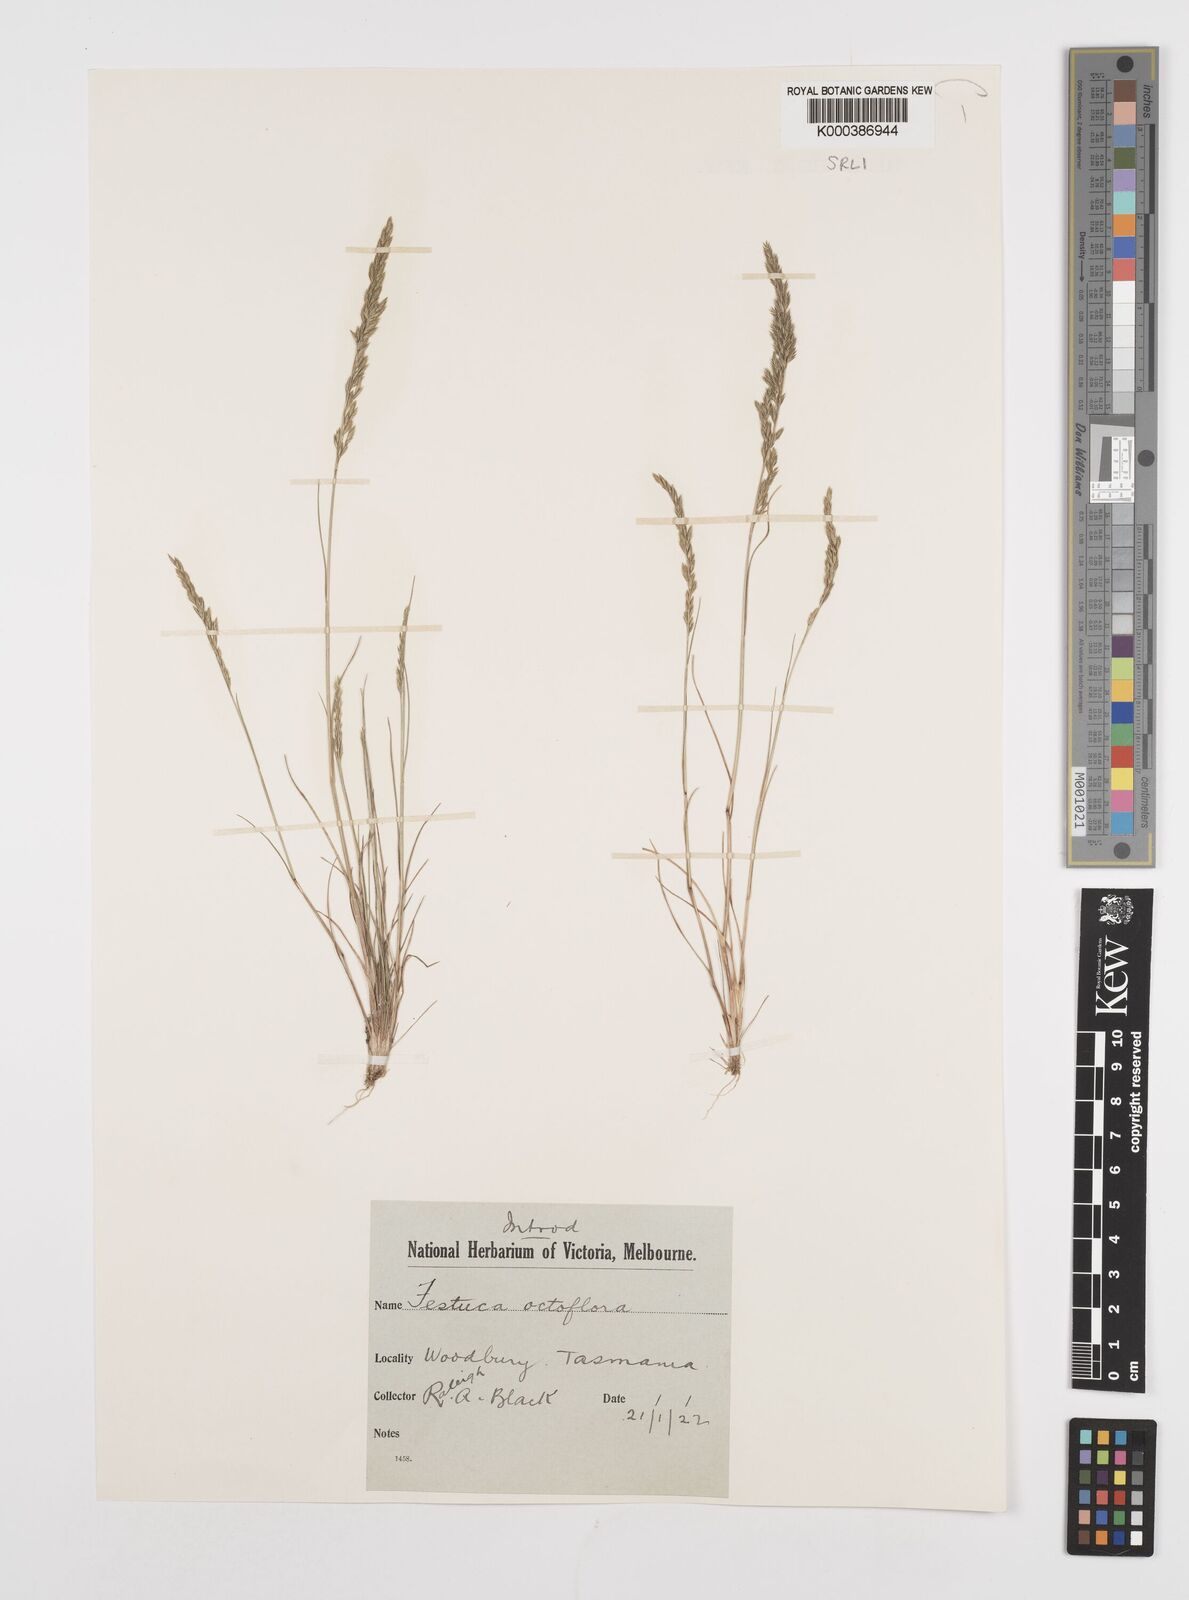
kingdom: Plantae
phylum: Tracheophyta
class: Liliopsida
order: Poales
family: Poaceae
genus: Festuca
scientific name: Festuca octoflora
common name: Sixweeks grass
